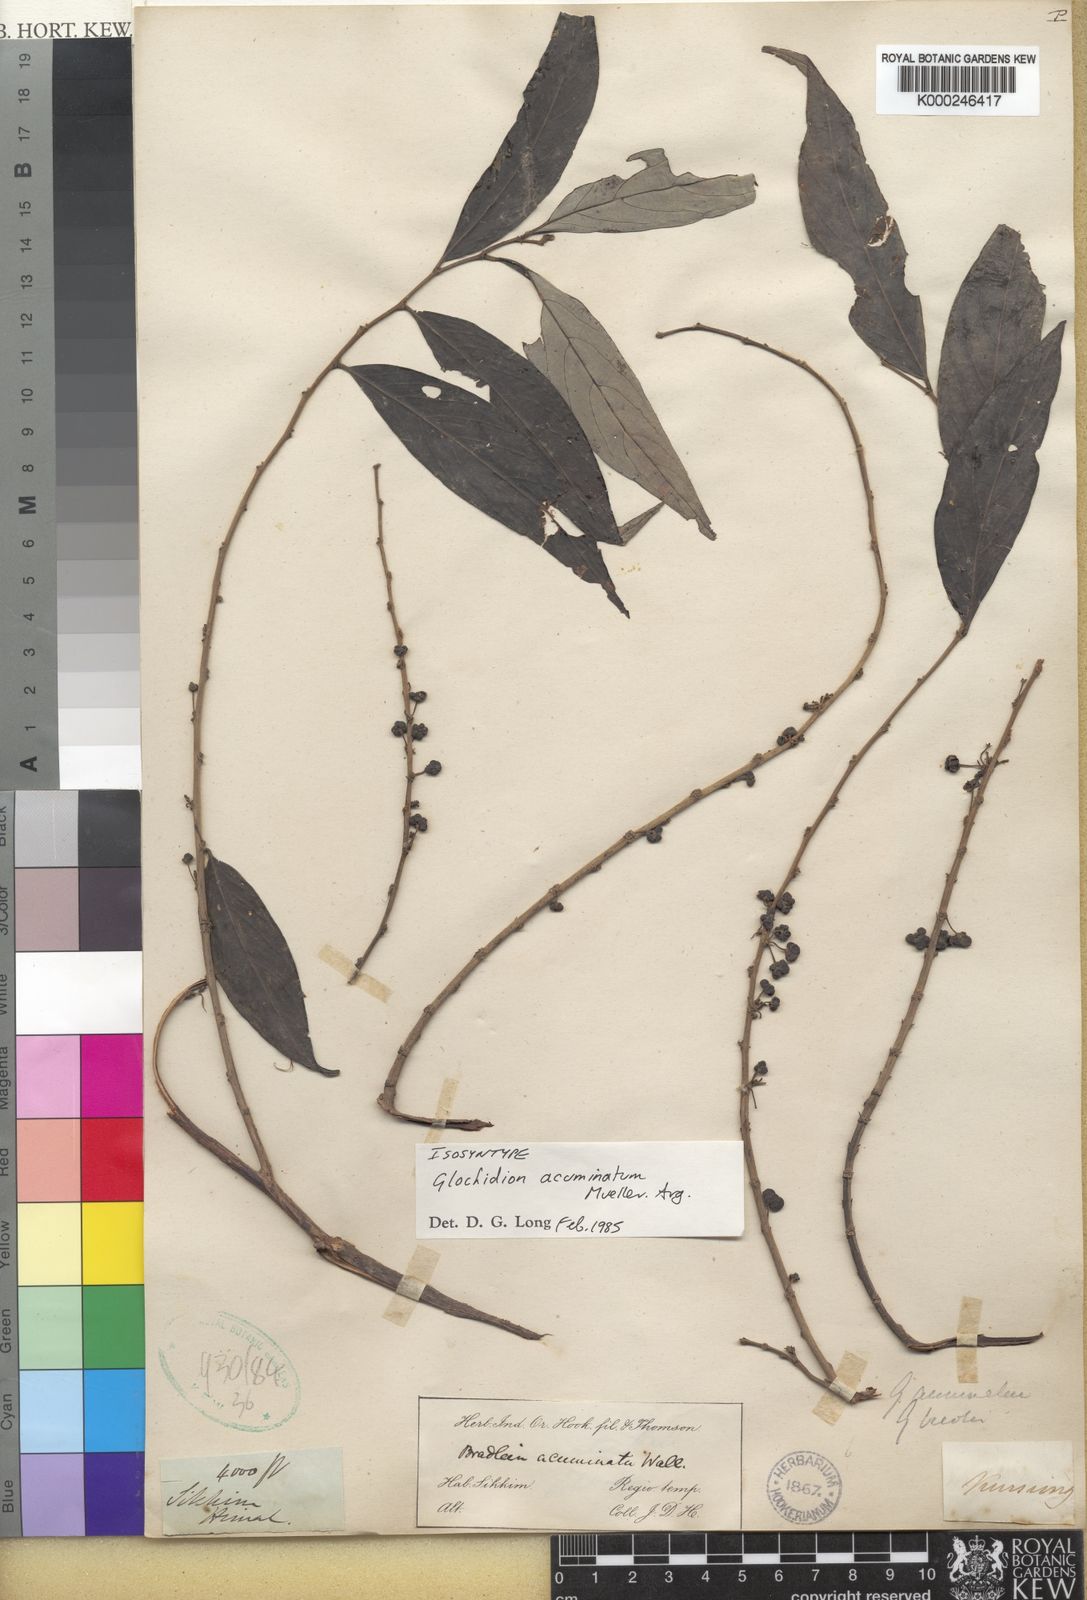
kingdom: Plantae
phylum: Tracheophyta
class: Magnoliopsida
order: Malpighiales
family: Phyllanthaceae
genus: Glochidion
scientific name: Glochidion
